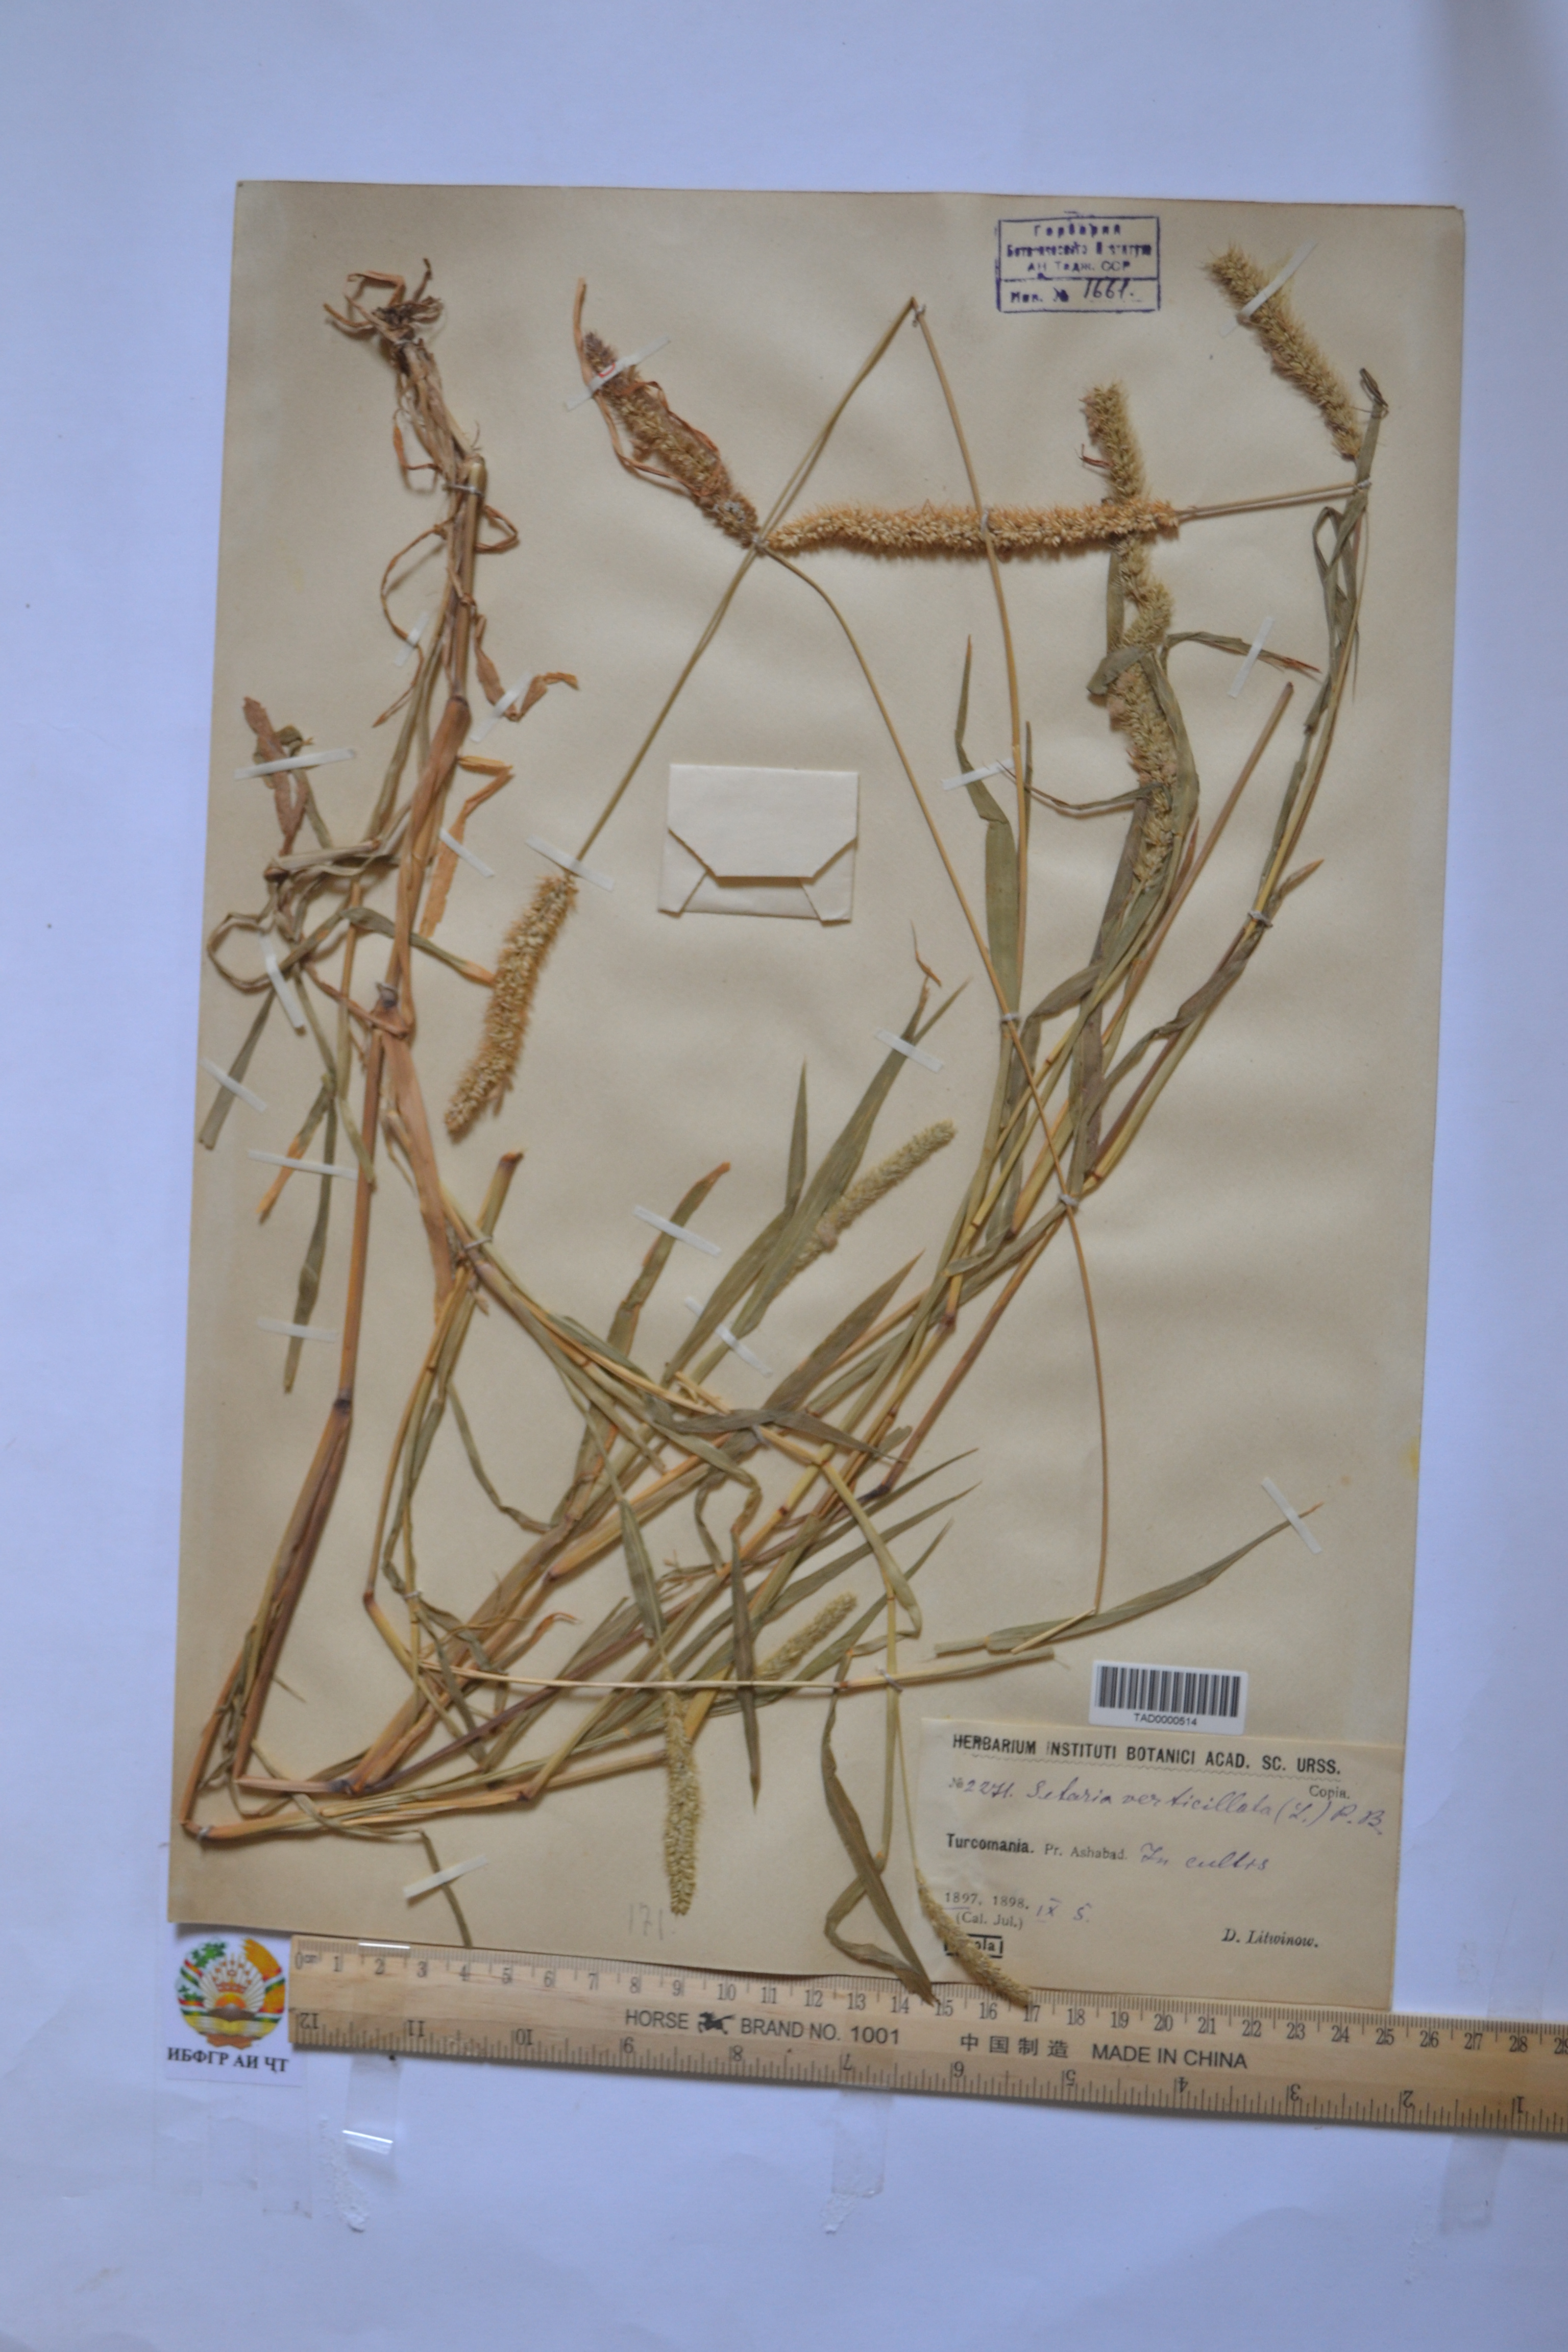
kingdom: Plantae
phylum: Tracheophyta
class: Liliopsida
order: Poales
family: Poaceae
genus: Setaria
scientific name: Setaria verticillata
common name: Hooked bristlegrass
